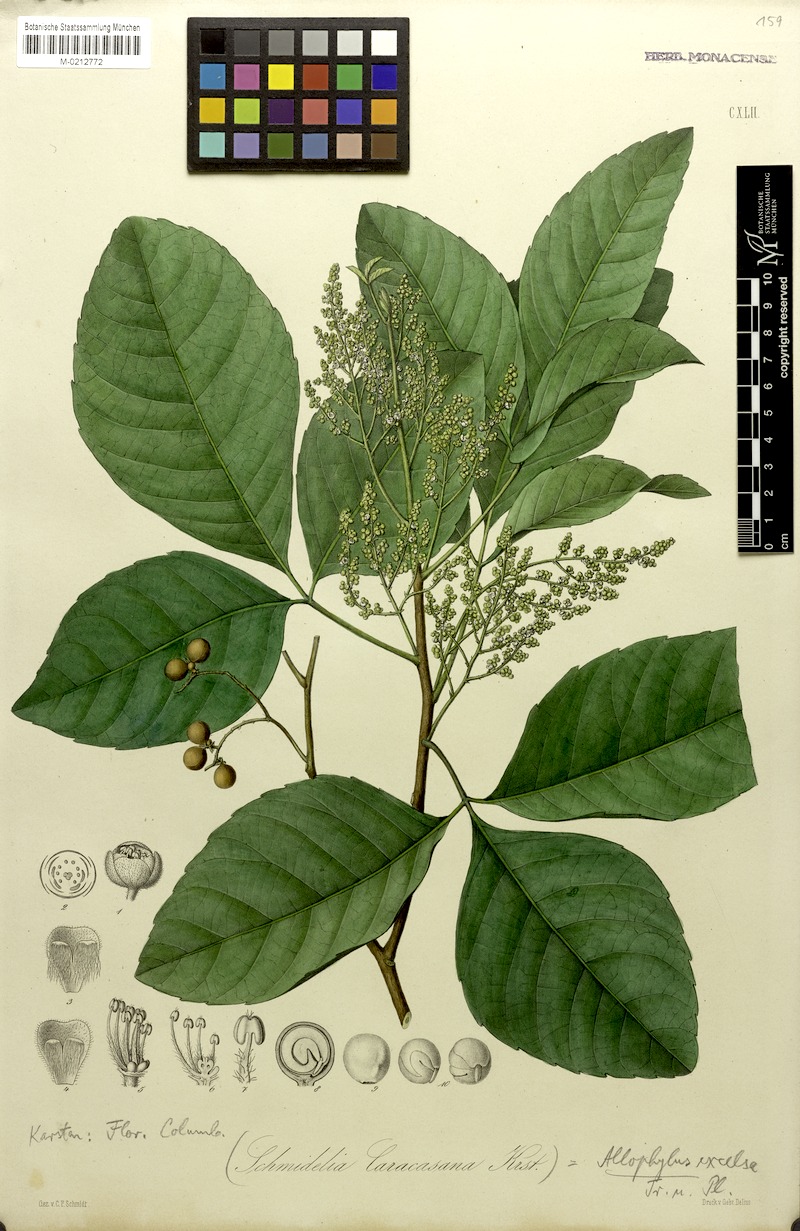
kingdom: Plantae
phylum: Tracheophyta
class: Magnoliopsida
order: Sapindales
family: Sapindaceae
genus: Allophylus
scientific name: Allophylus excelsus
